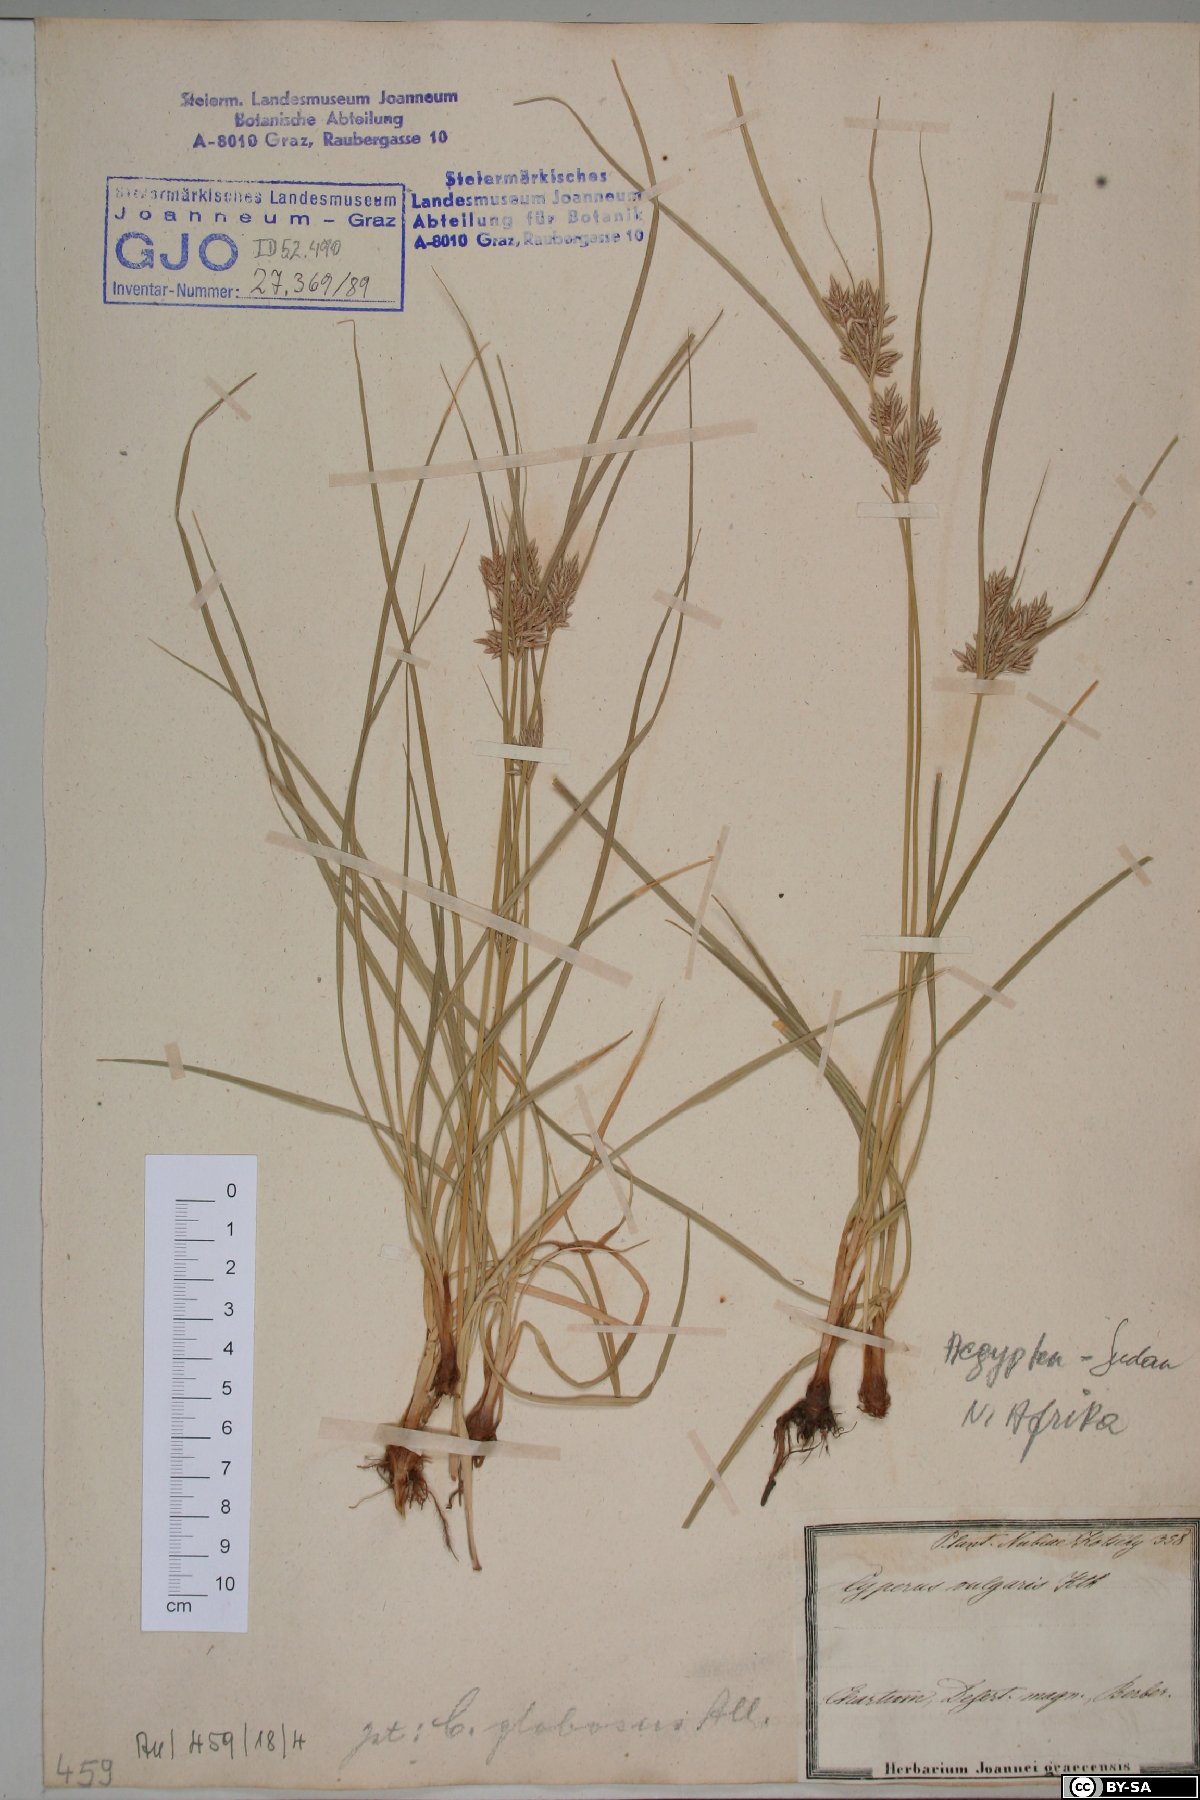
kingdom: Plantae
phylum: Tracheophyta
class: Liliopsida
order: Poales
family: Cyperaceae
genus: Cyperus
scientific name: Cyperus flavidus
